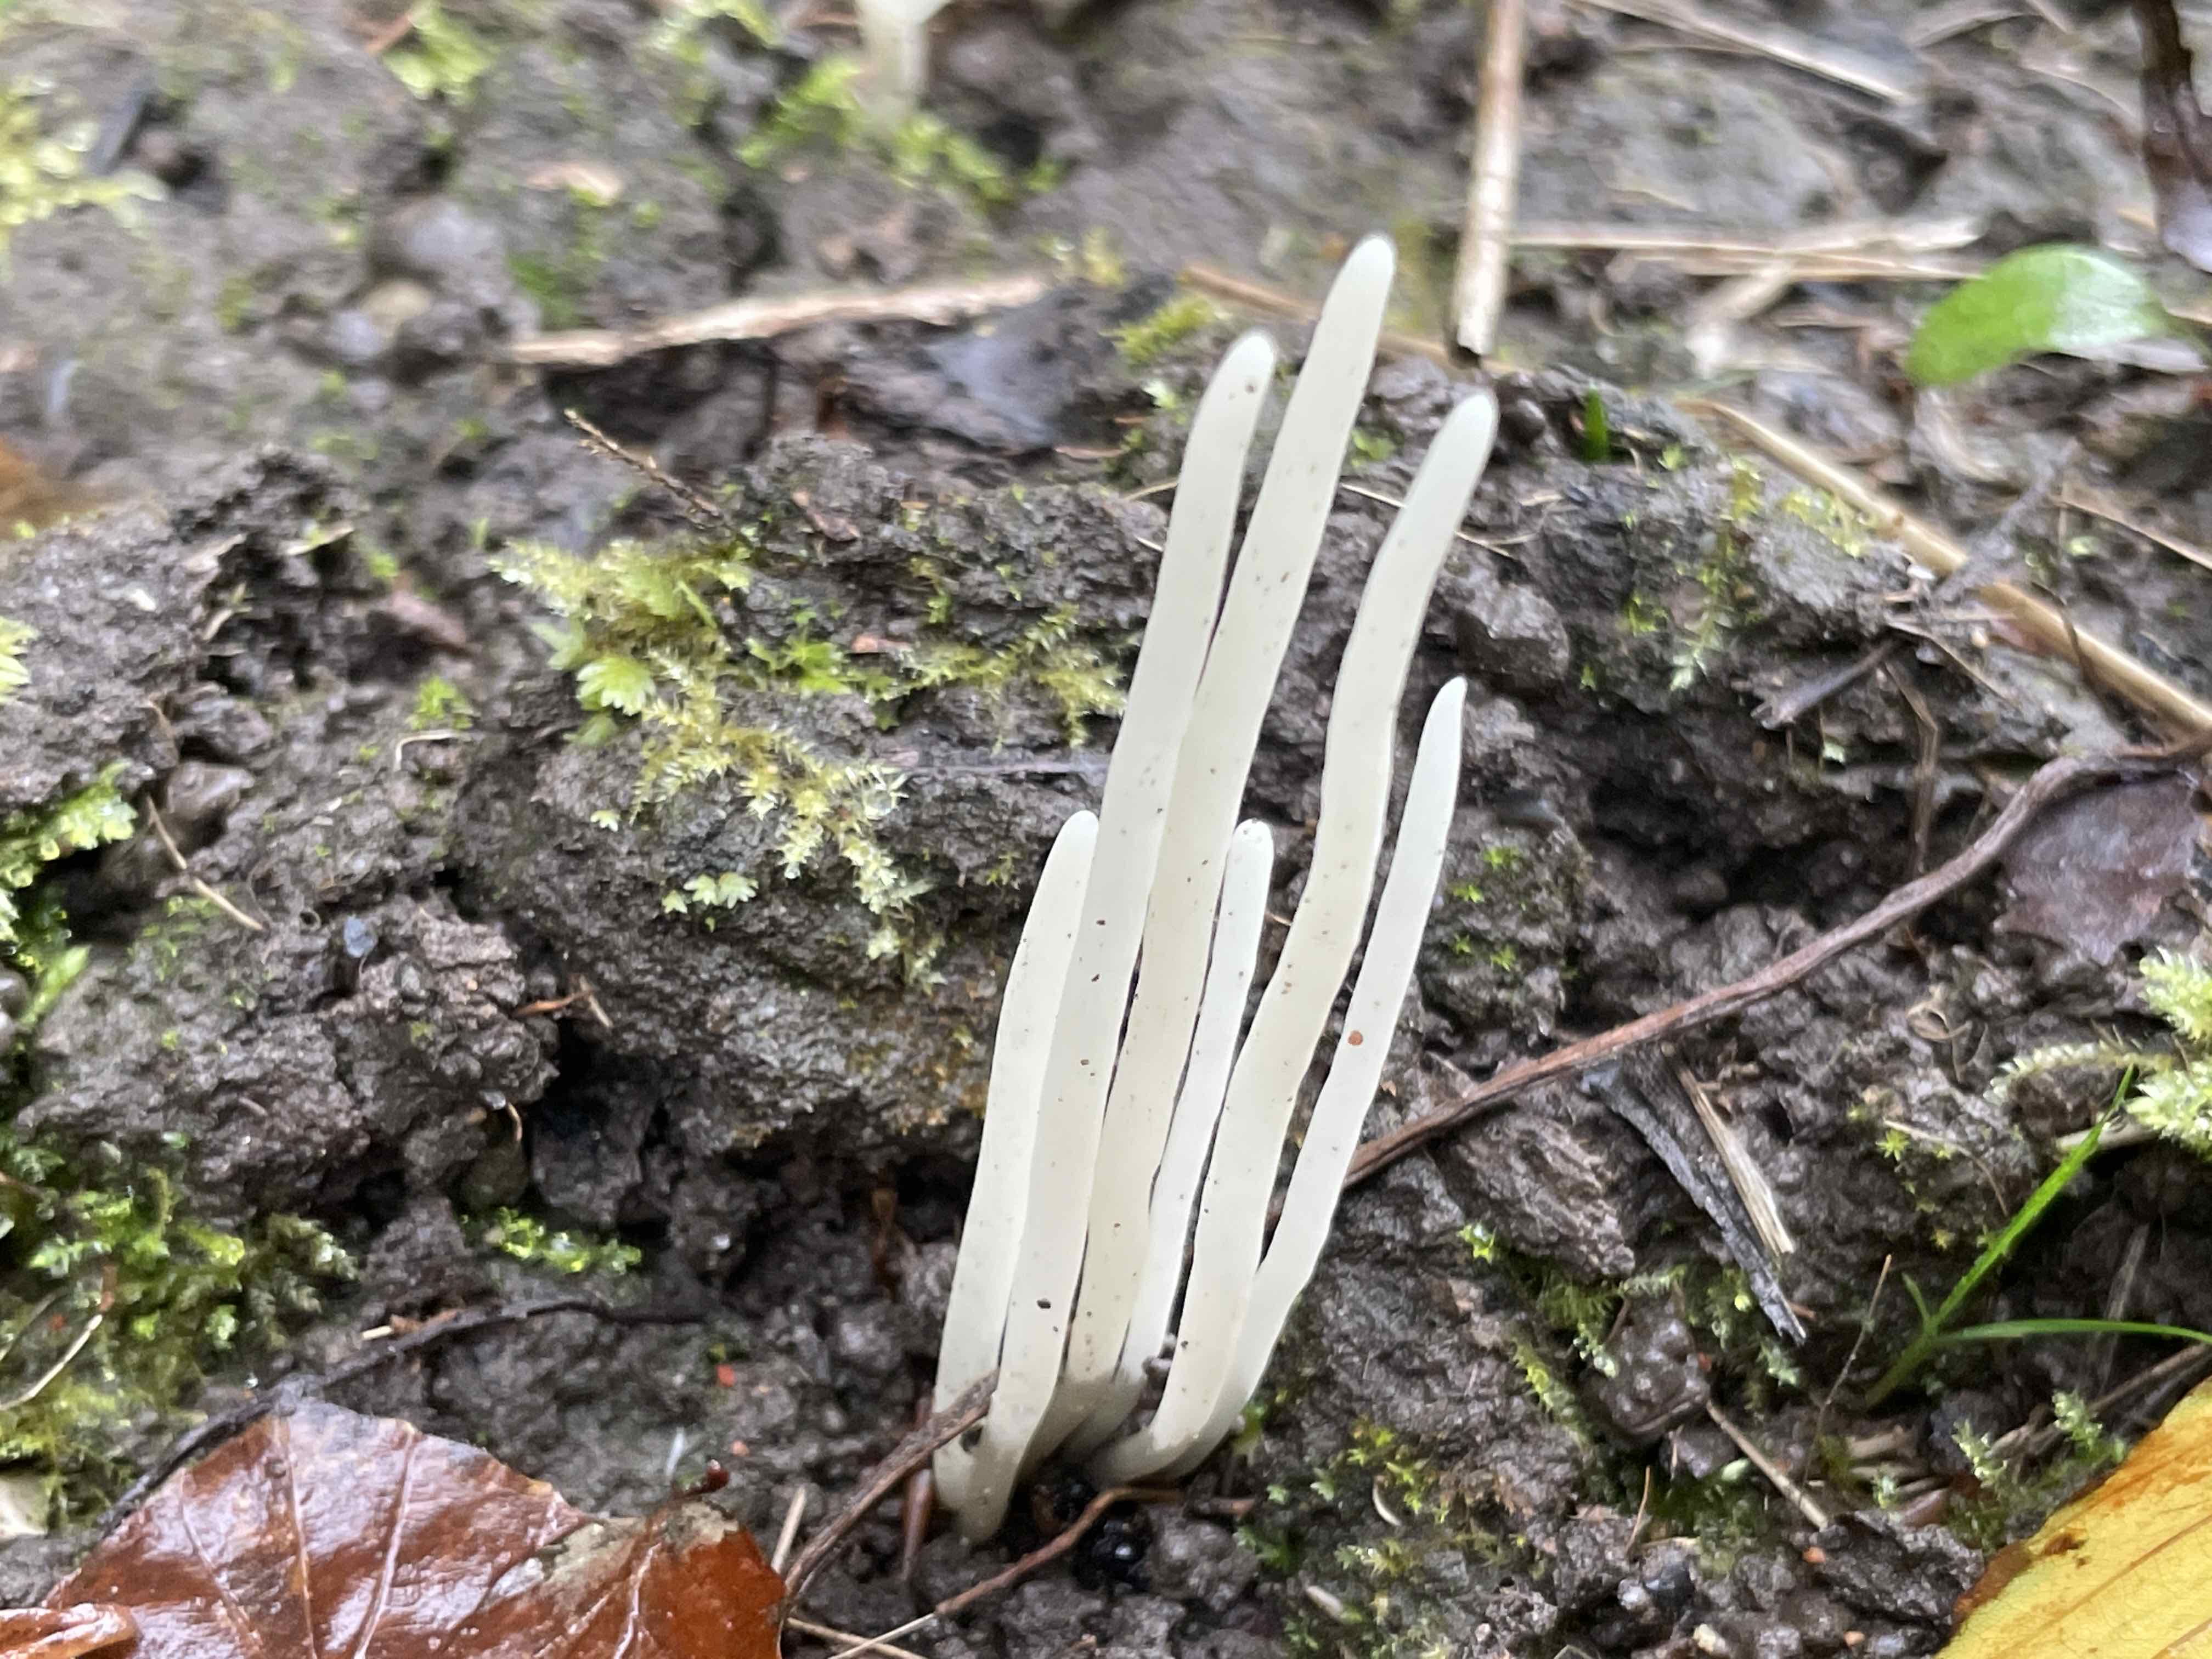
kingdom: Fungi
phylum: Basidiomycota
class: Agaricomycetes
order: Agaricales
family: Clavariaceae
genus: Clavaria
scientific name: Clavaria
